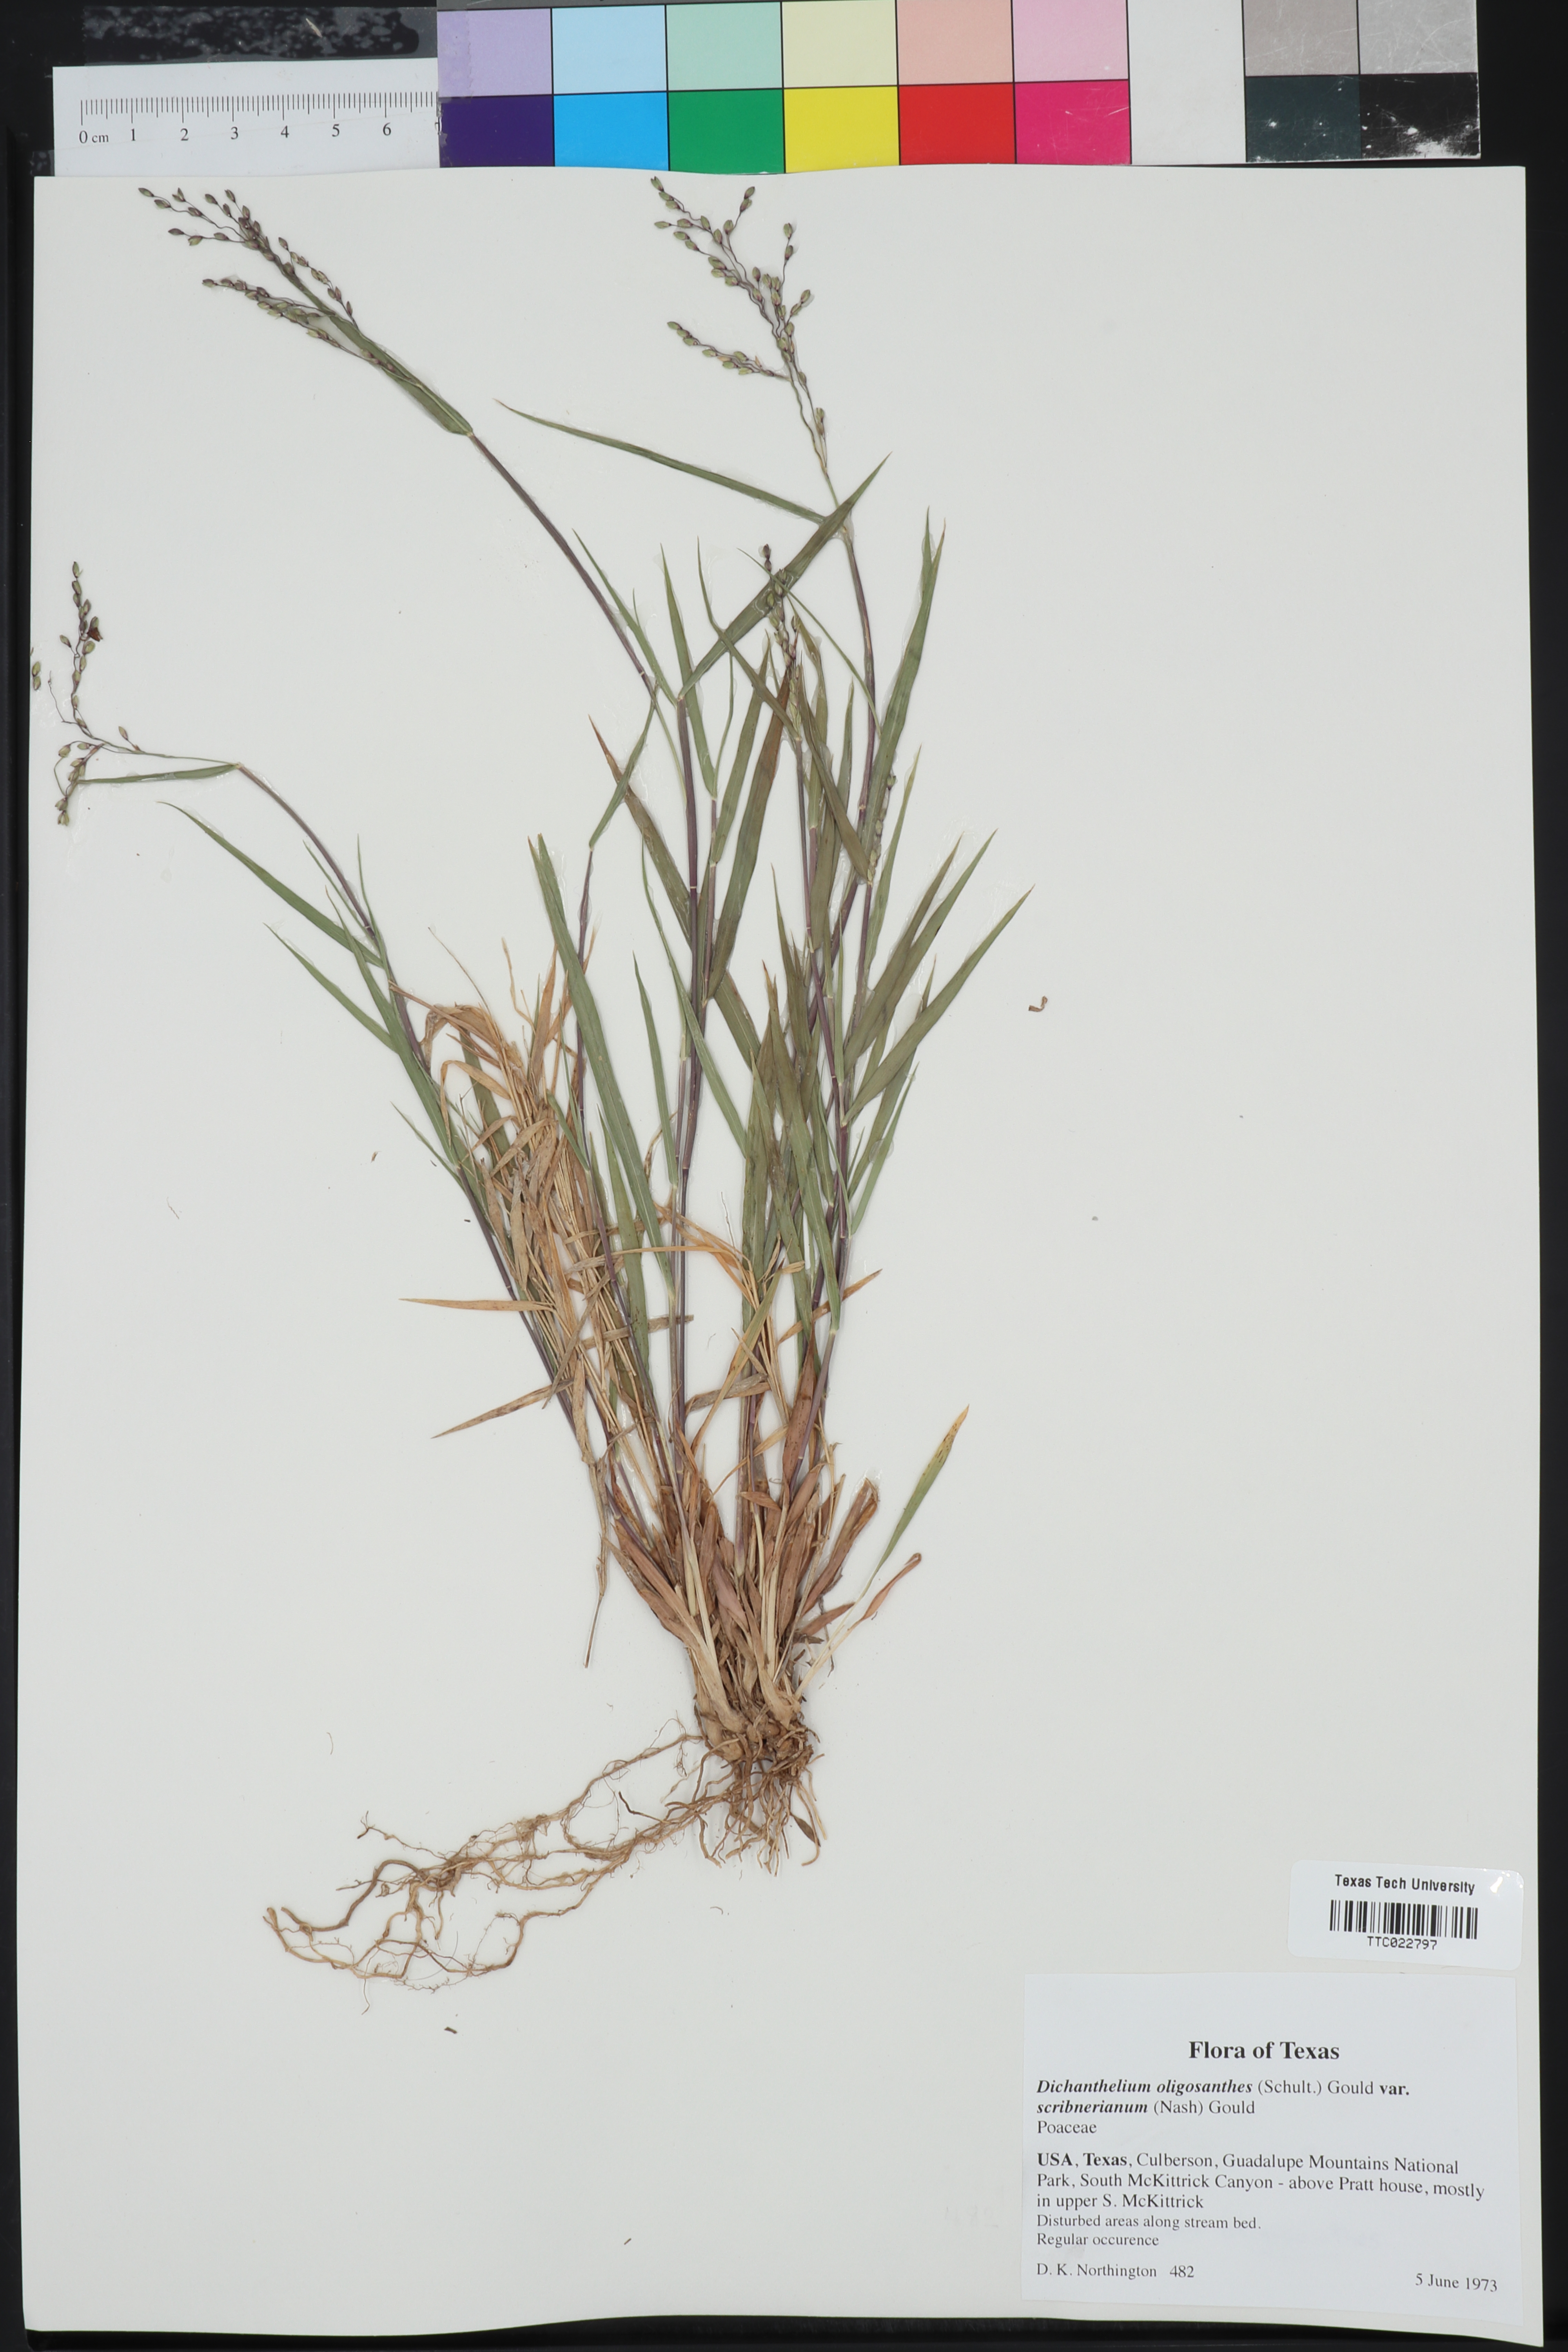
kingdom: Plantae
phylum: Tracheophyta
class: Liliopsida
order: Poales
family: Poaceae
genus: Dichanthelium
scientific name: Dichanthelium scribnerianum
